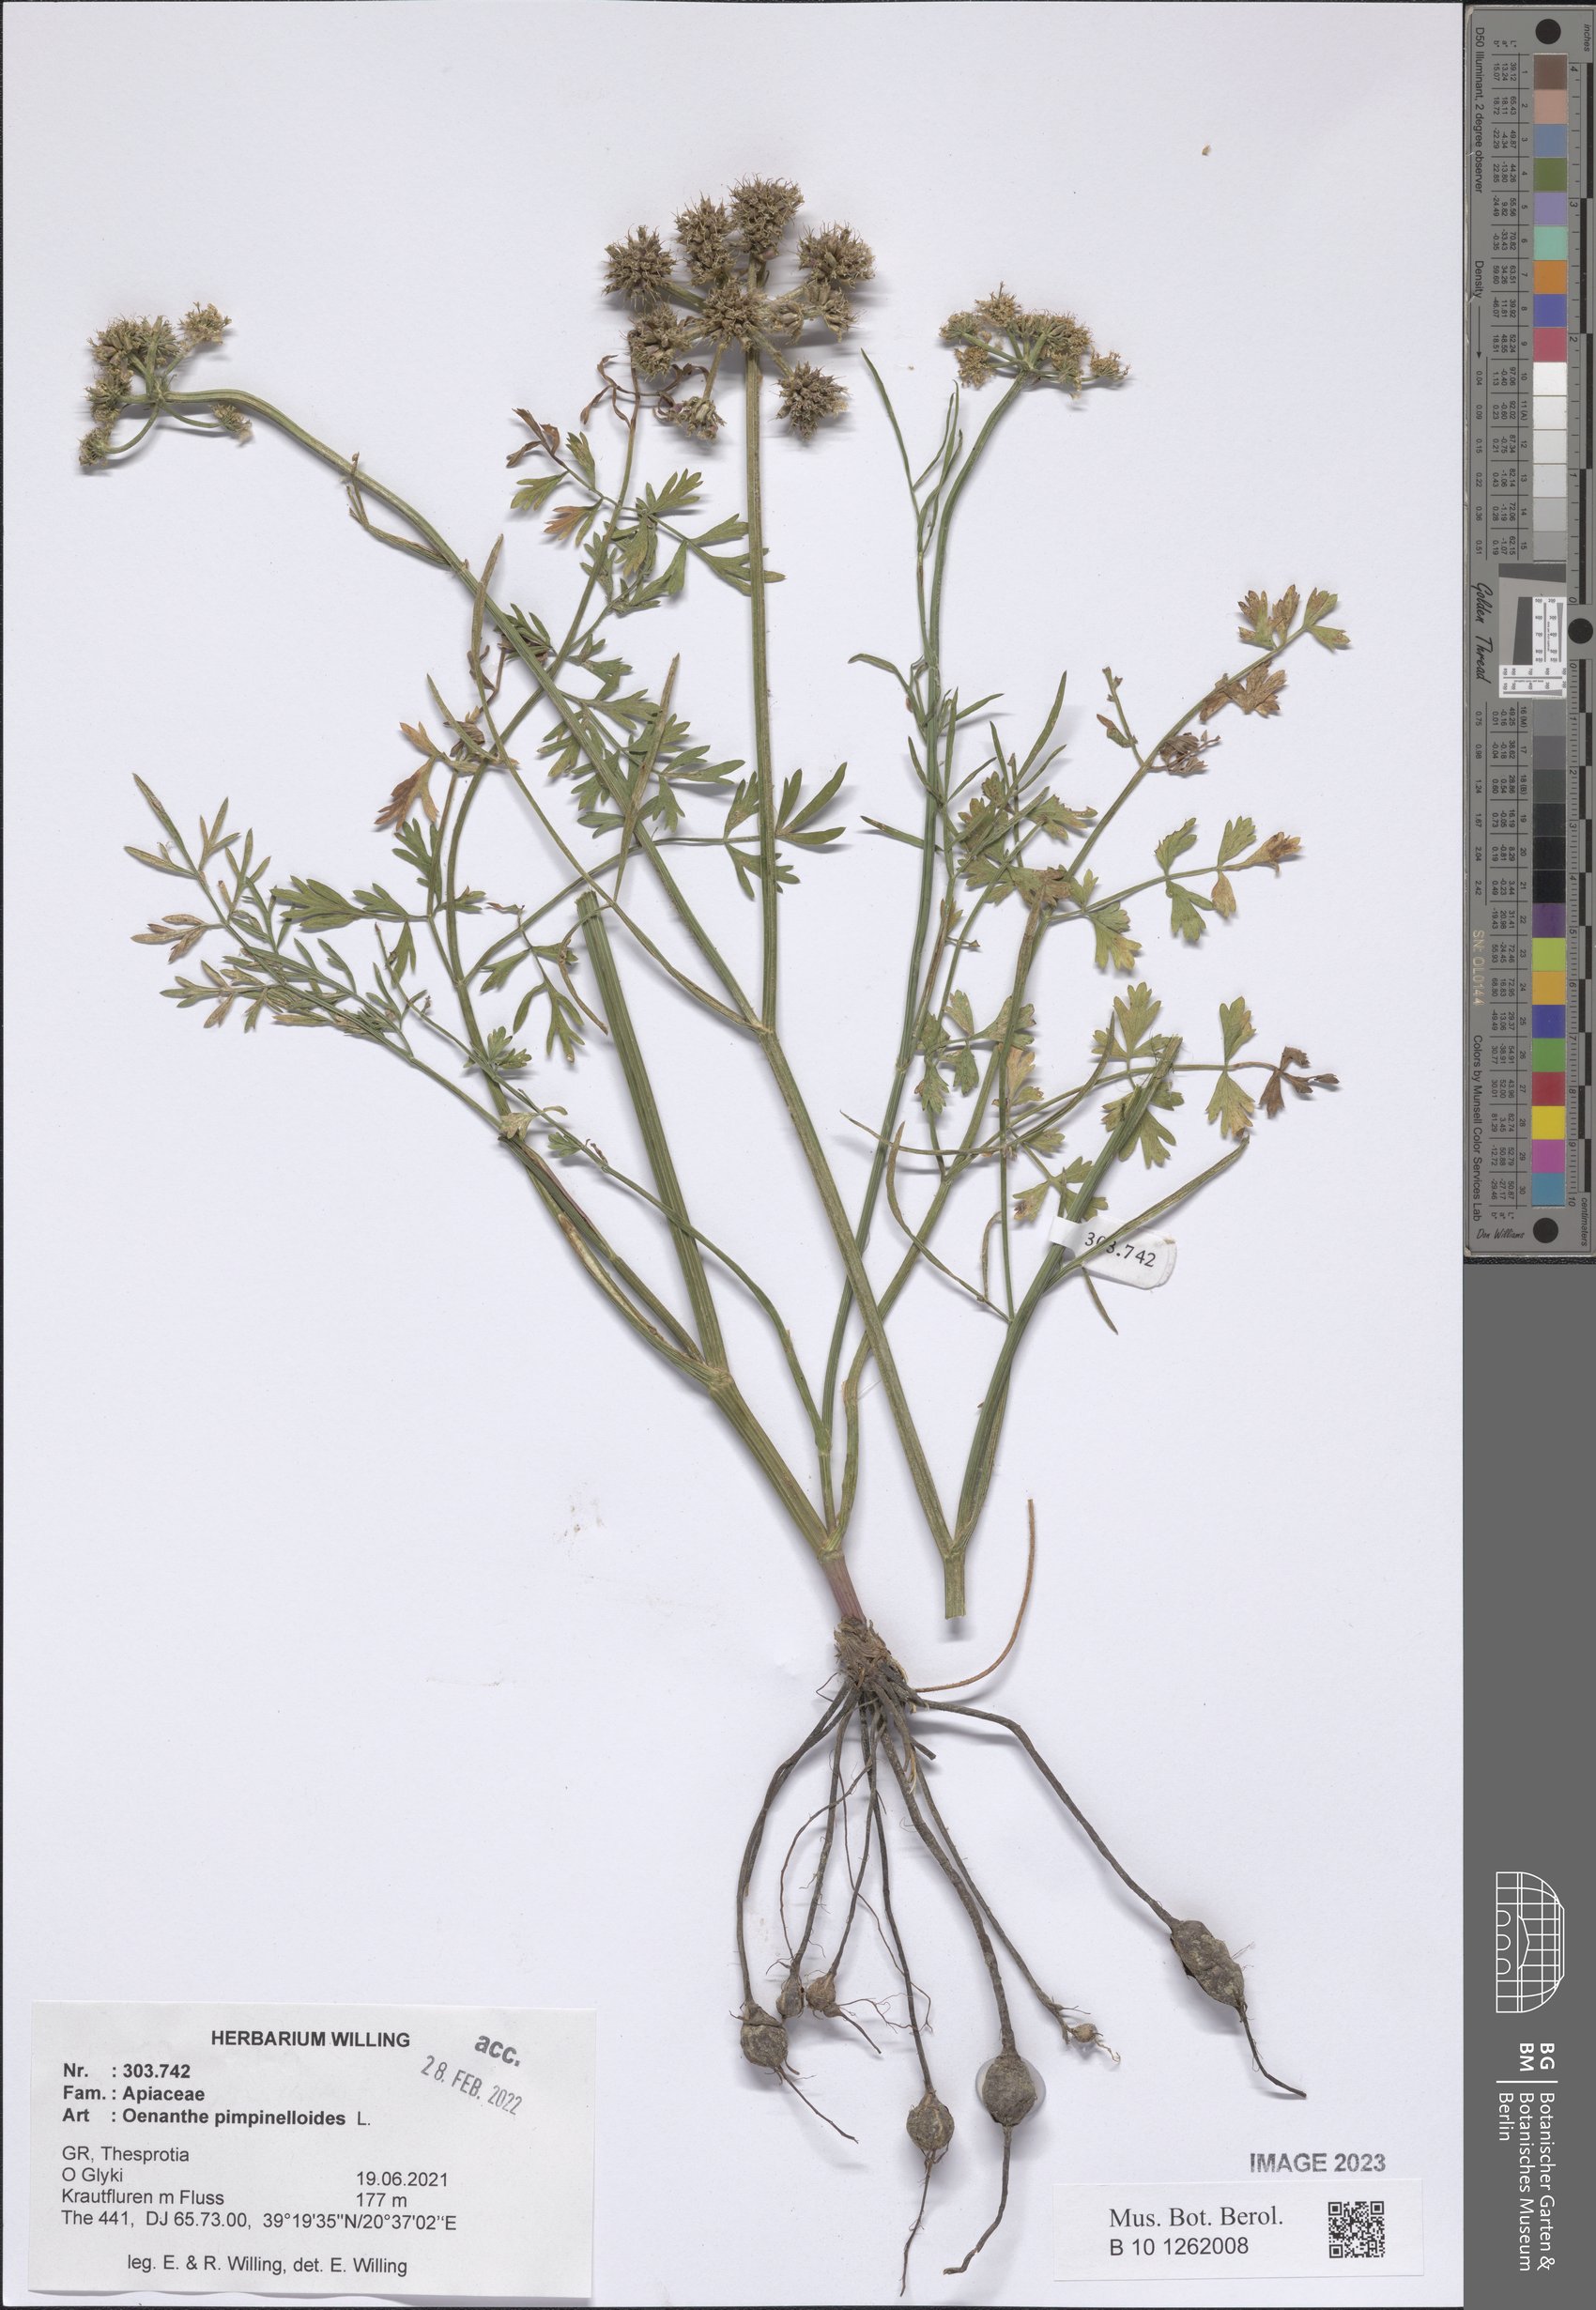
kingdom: Plantae
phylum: Tracheophyta
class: Magnoliopsida
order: Apiales
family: Apiaceae
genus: Oenanthe
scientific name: Oenanthe pimpinelloides
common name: Corky-fruited water-dropwort
